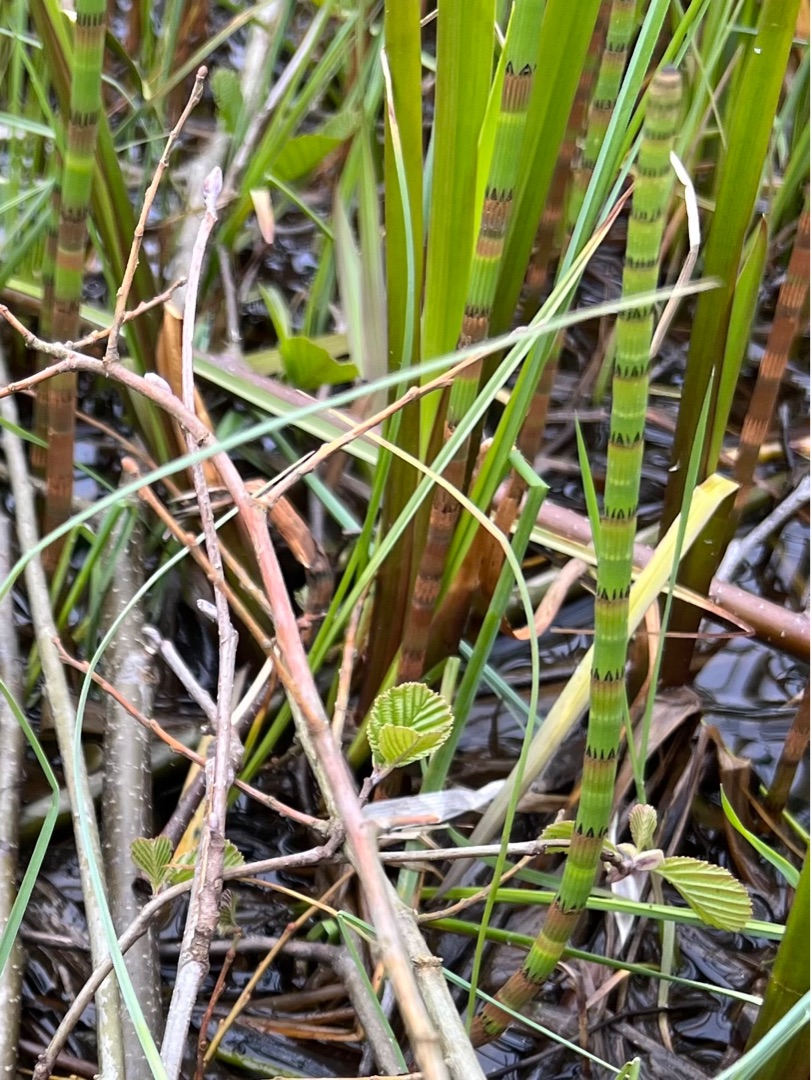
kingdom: Plantae
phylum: Tracheophyta
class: Polypodiopsida
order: Equisetales
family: Equisetaceae
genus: Equisetum
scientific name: Equisetum fluviatile
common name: Dynd-padderok
